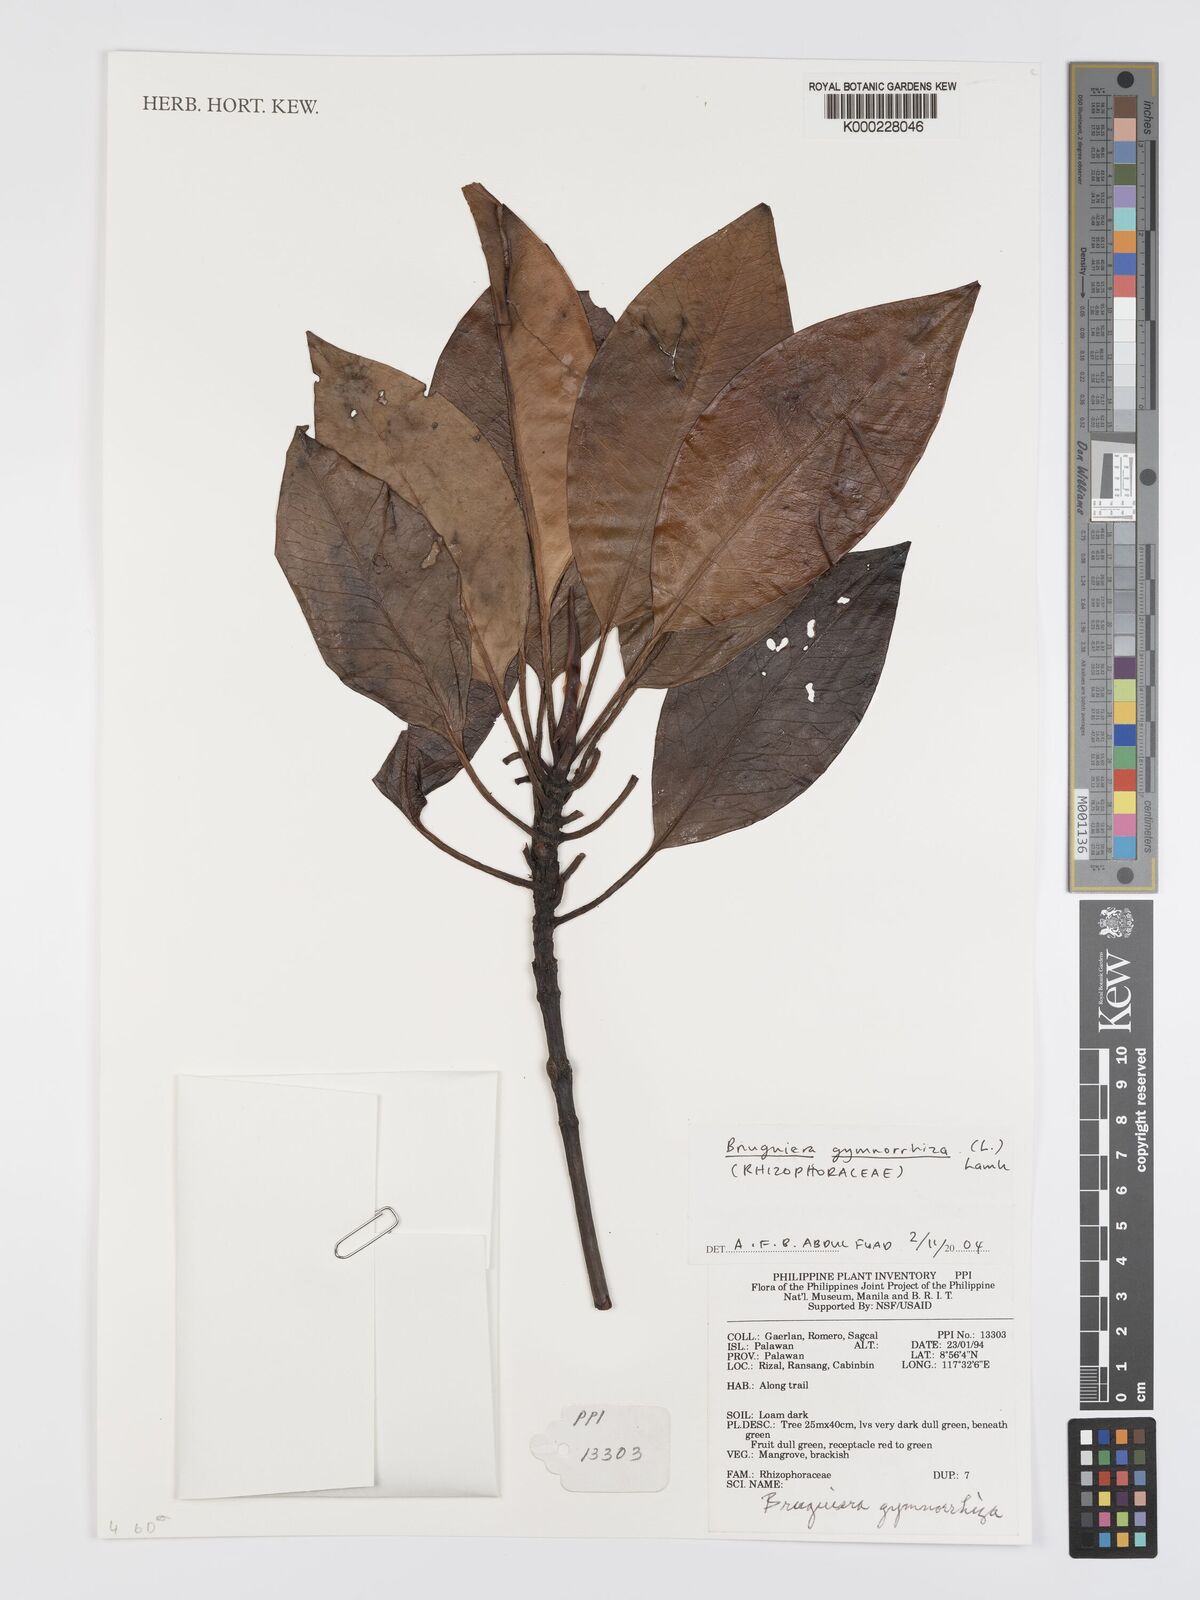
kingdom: Plantae
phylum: Tracheophyta
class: Magnoliopsida
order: Malpighiales
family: Rhizophoraceae
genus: Bruguiera
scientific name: Bruguiera gymnorhiza
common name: Oriental mangrove
